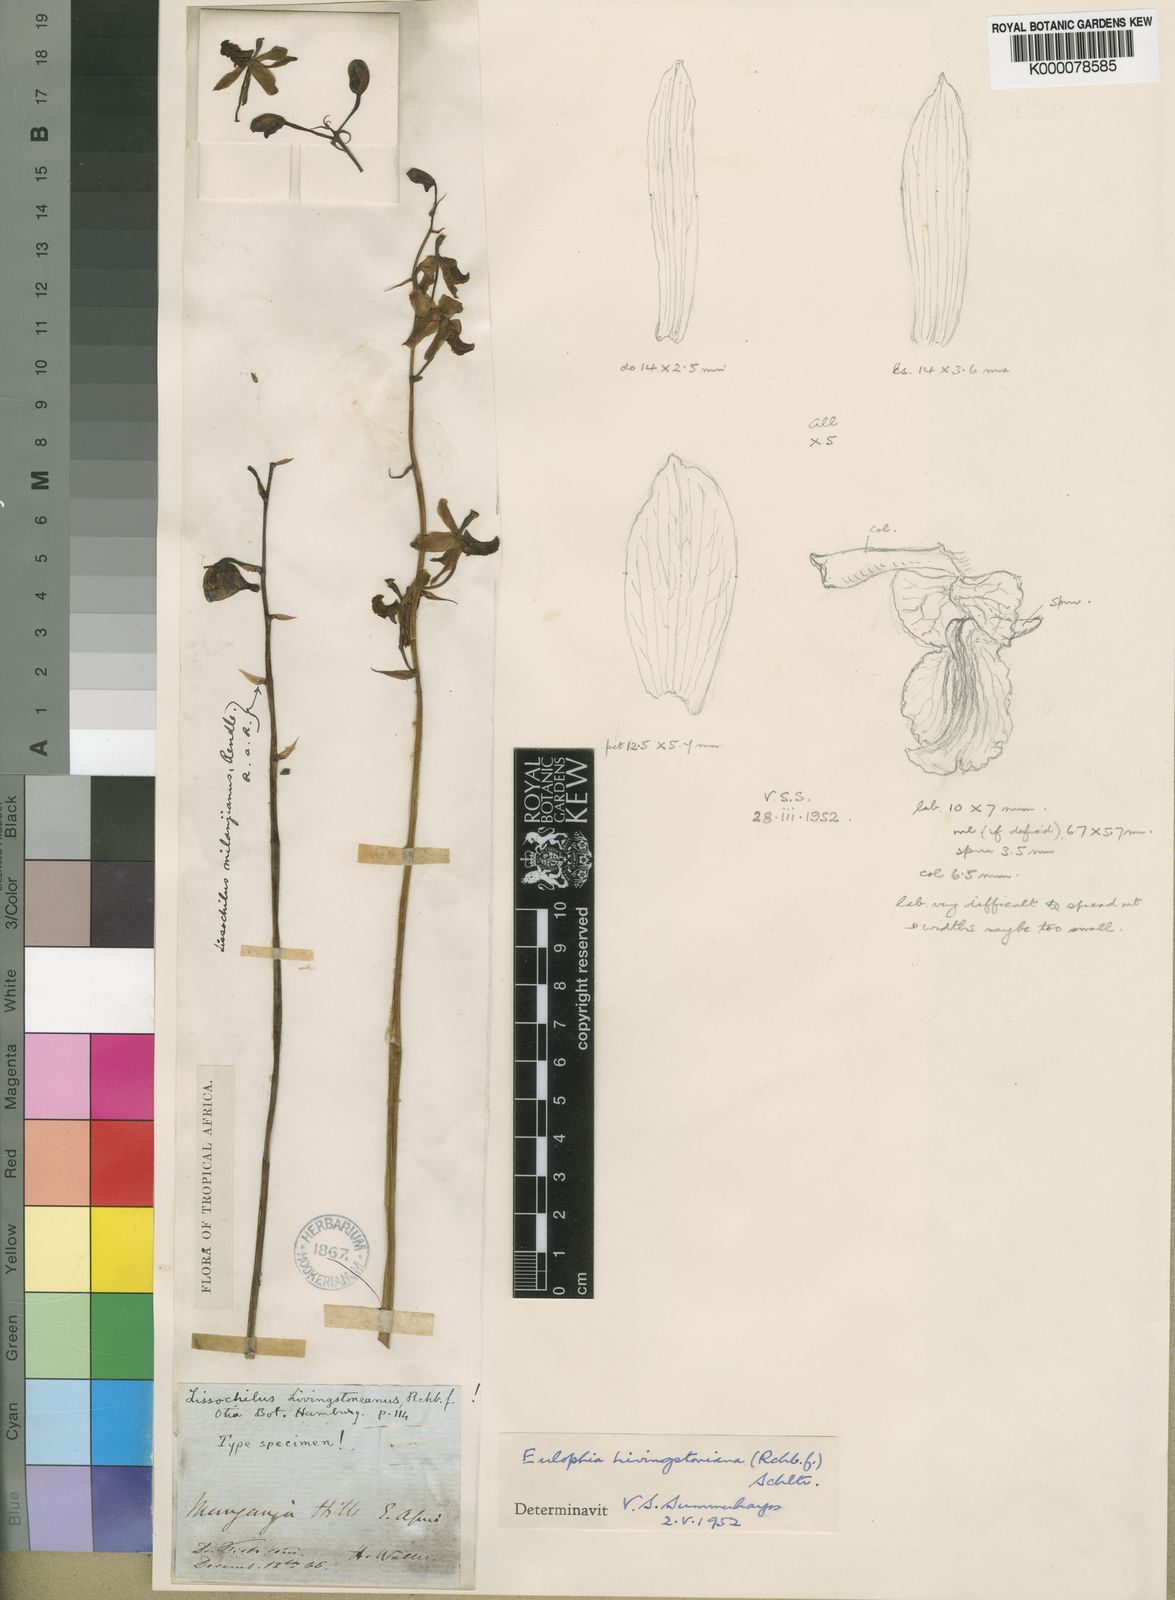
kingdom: Plantae
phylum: Tracheophyta
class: Liliopsida
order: Asparagales
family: Orchidaceae
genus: Eulophia
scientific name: Eulophia
